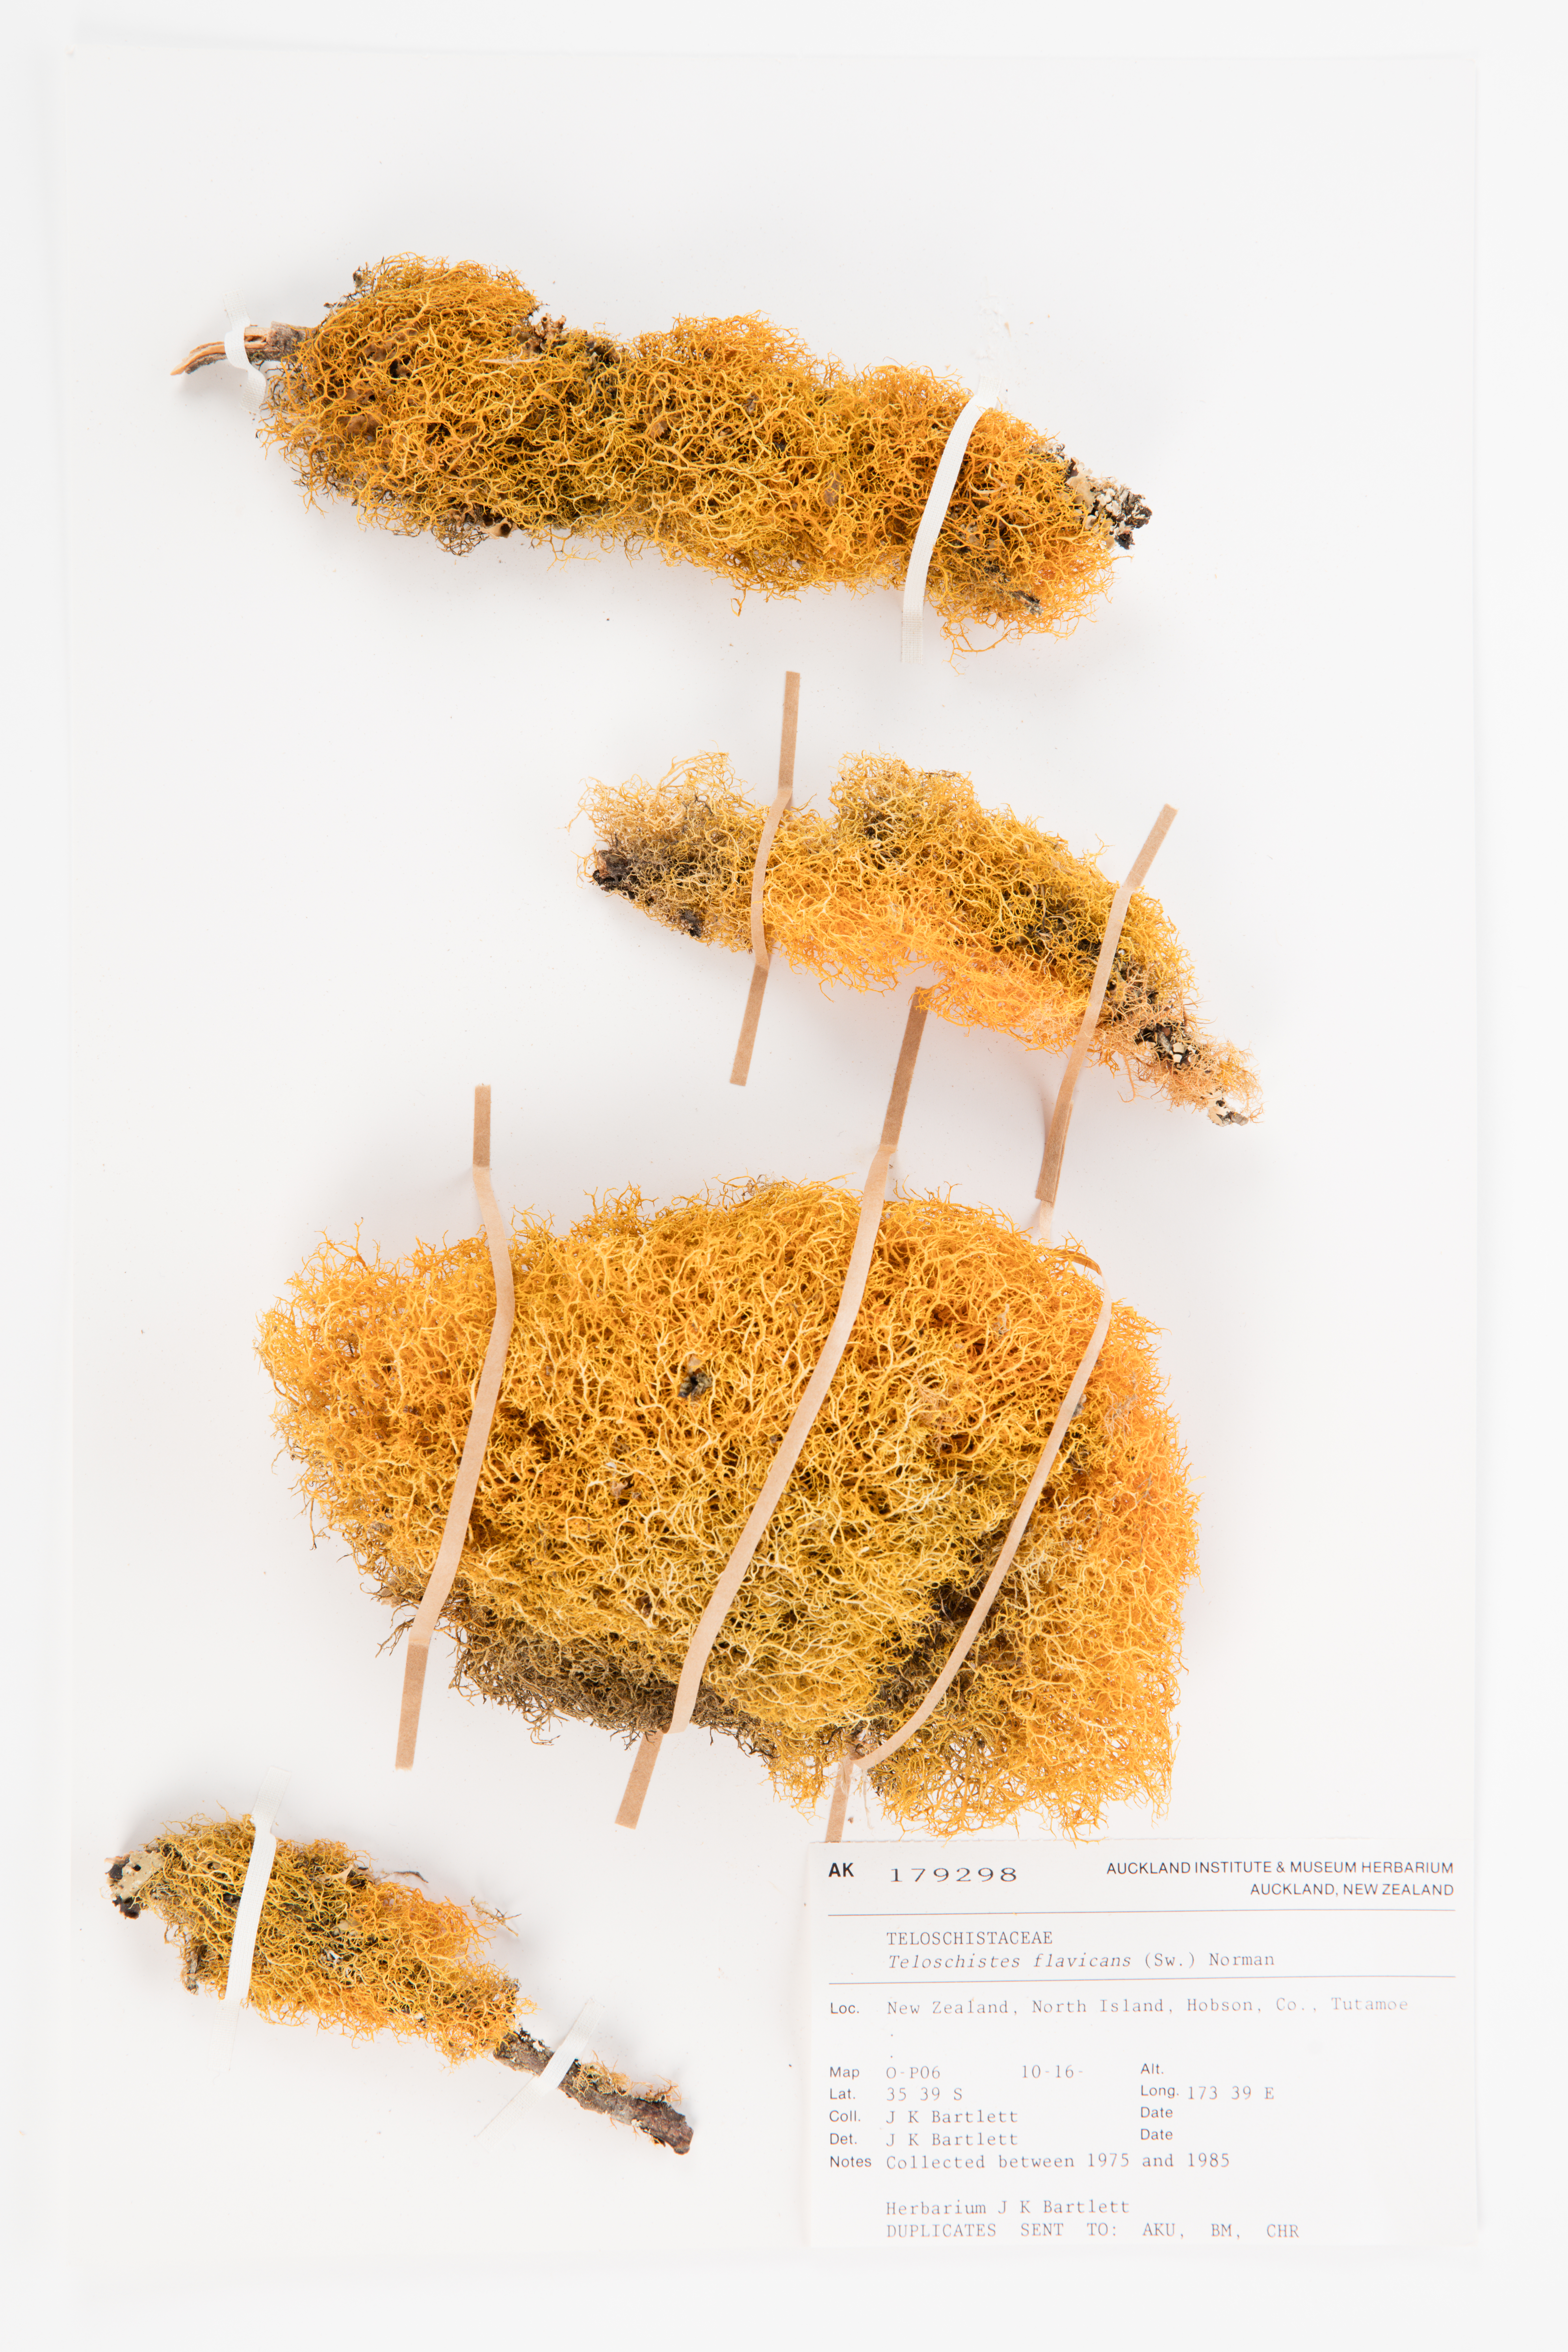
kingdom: Fungi
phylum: Ascomycota
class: Lecanoromycetes
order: Teloschistales
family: Teloschistaceae
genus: Teloschistes
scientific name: Teloschistes flavicans
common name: Golden hair-lichen
